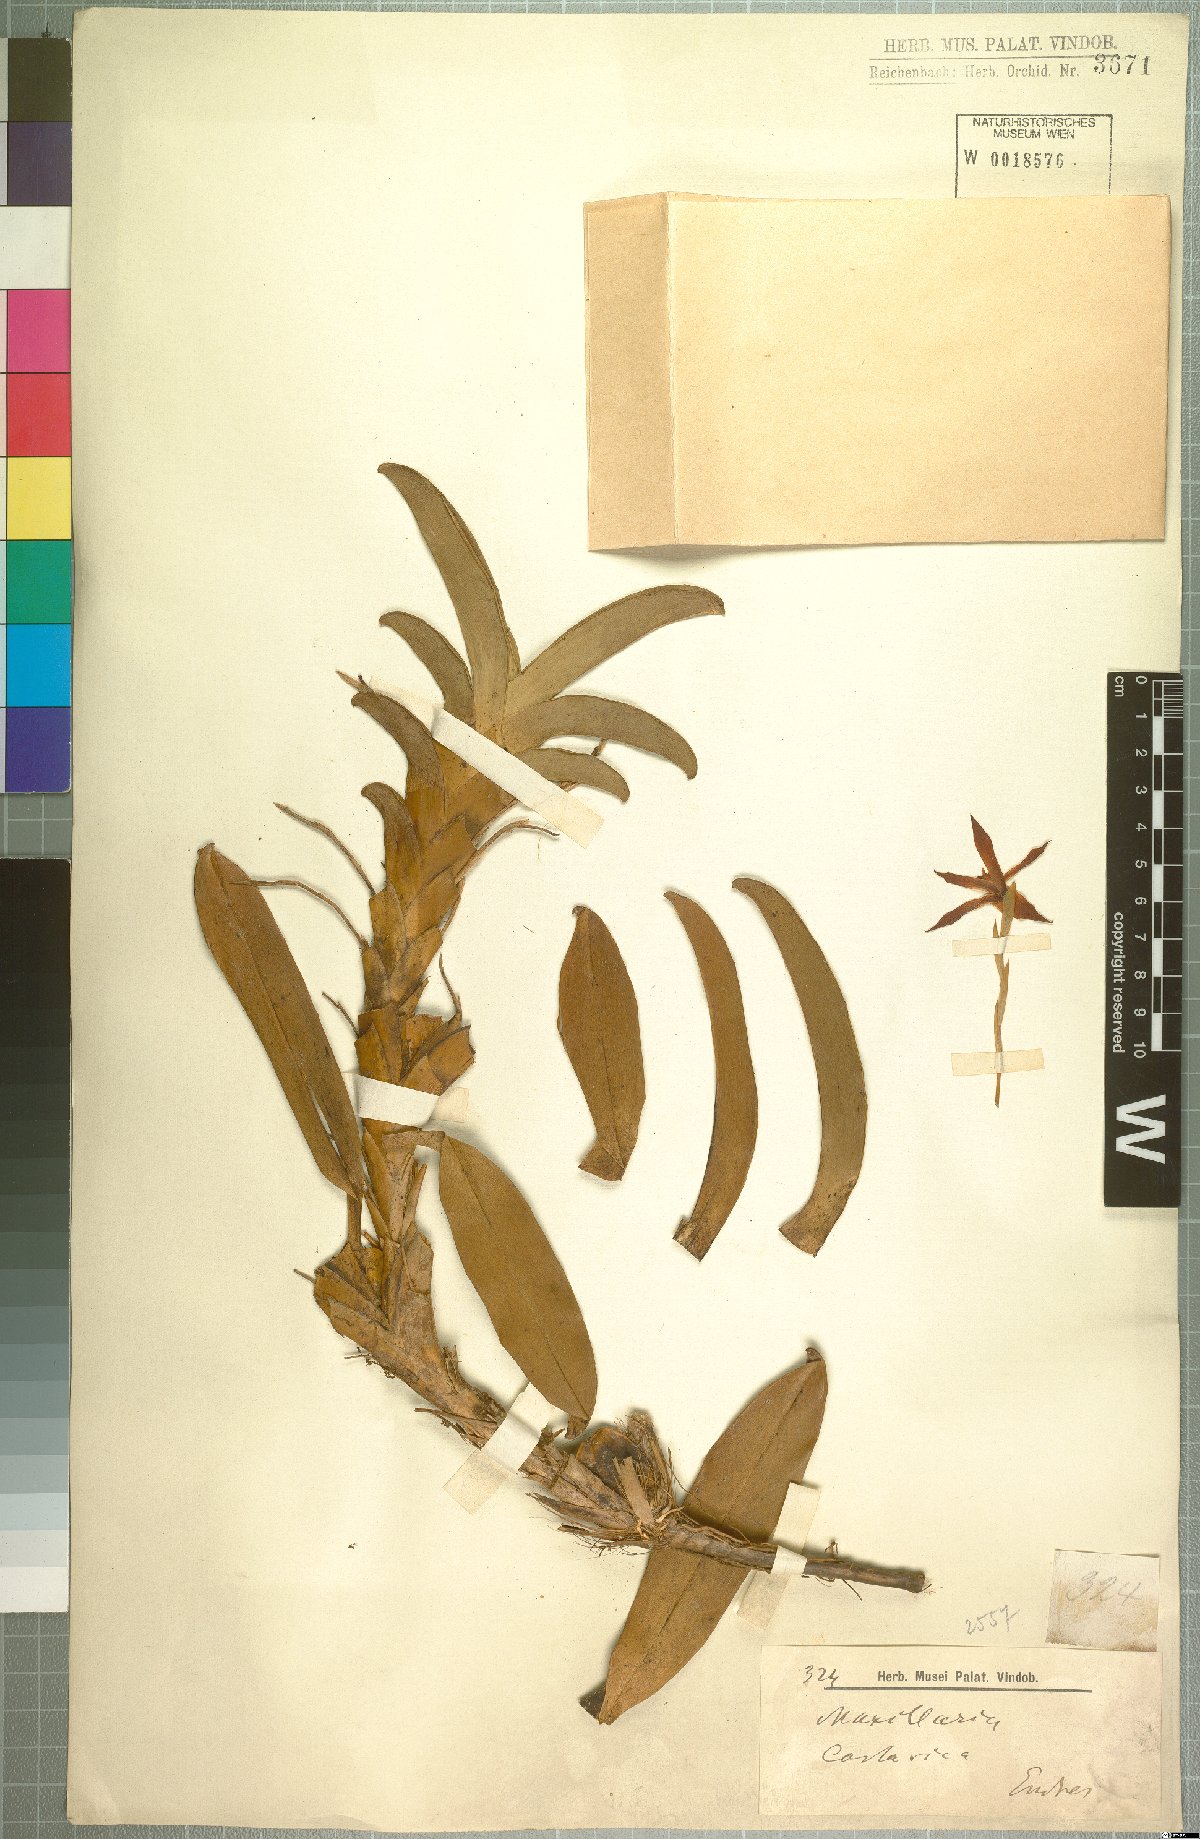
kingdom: Plantae
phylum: Tracheophyta
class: Liliopsida
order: Asparagales
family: Orchidaceae
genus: Maxillaria
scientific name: Maxillaria
